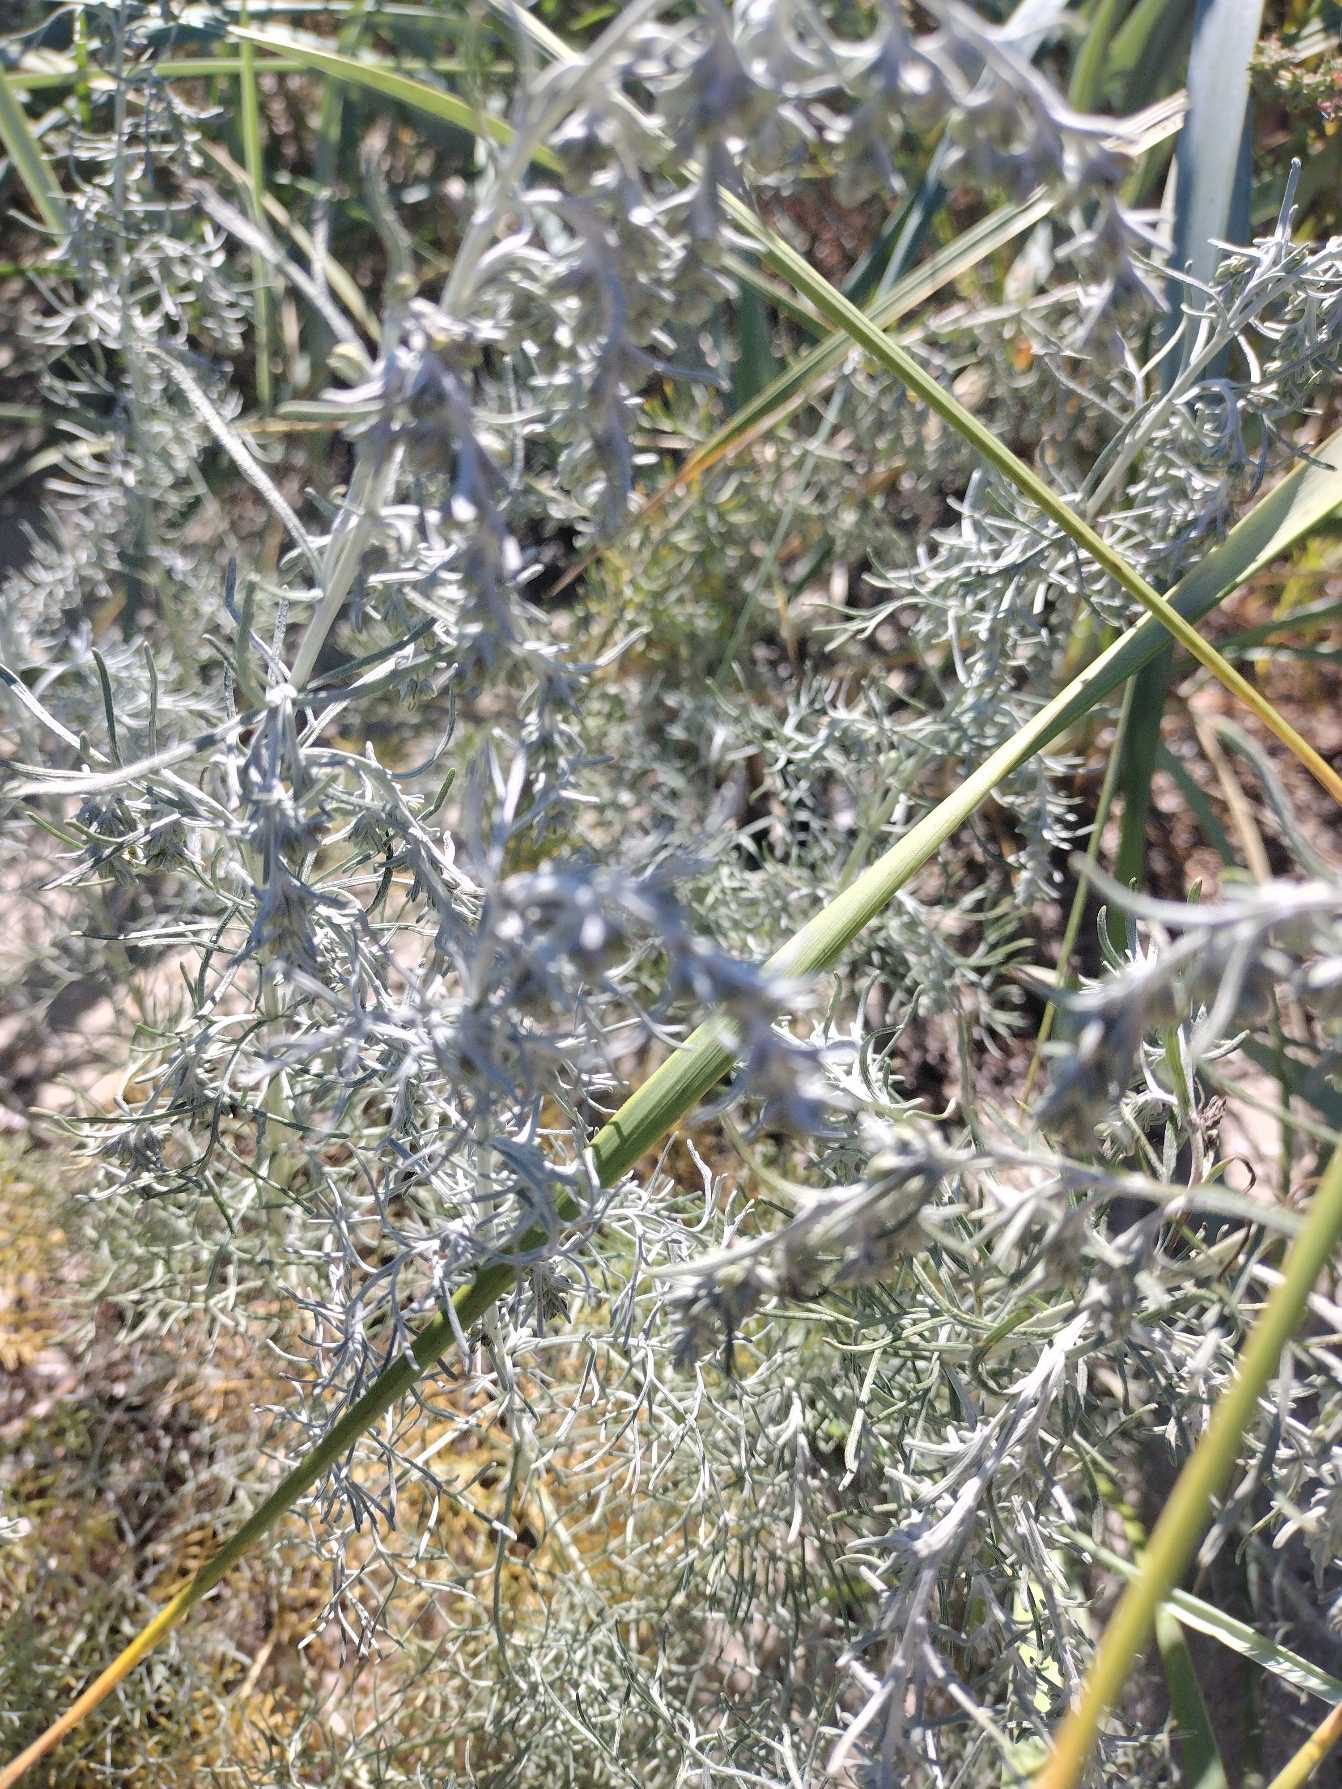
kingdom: Plantae
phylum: Tracheophyta
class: Magnoliopsida
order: Asterales
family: Asteraceae
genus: Artemisia
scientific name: Artemisia maritima
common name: Strandmalurt
